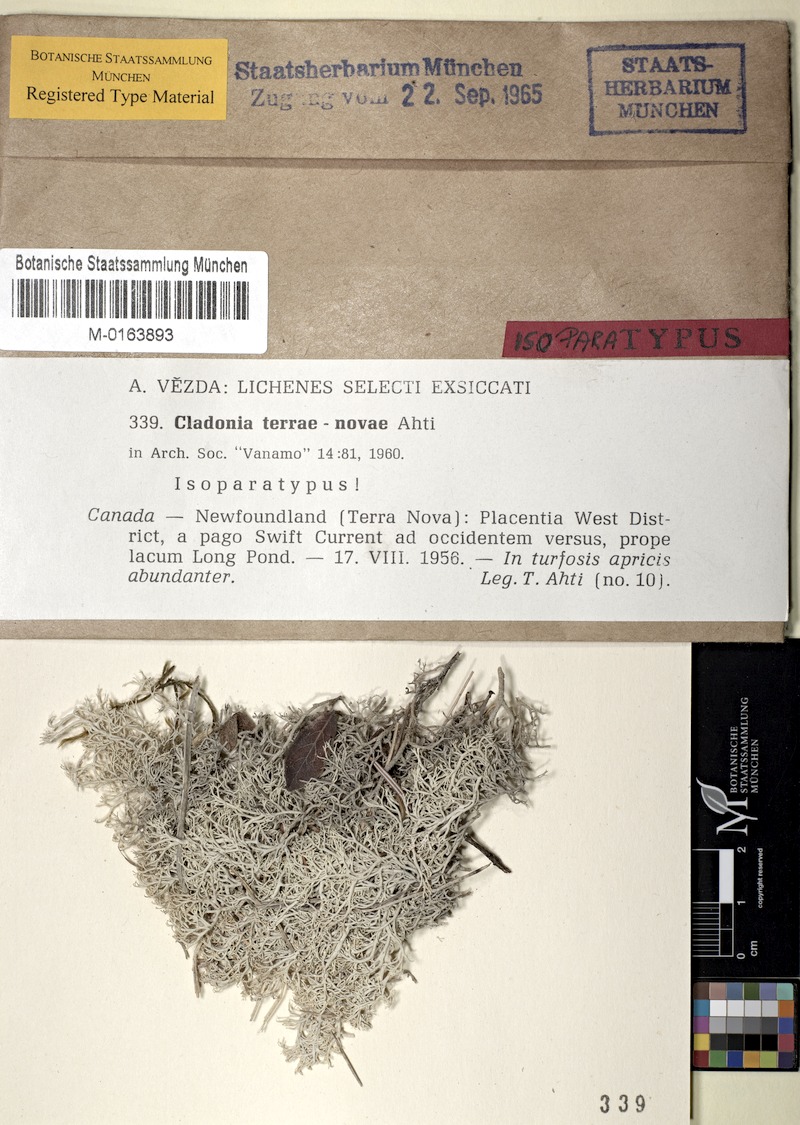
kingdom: Fungi
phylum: Ascomycota
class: Lecanoromycetes
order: Lecanorales
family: Cladoniaceae
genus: Cladonia
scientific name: Cladonia terrae-novae
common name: Reindeer lichen
